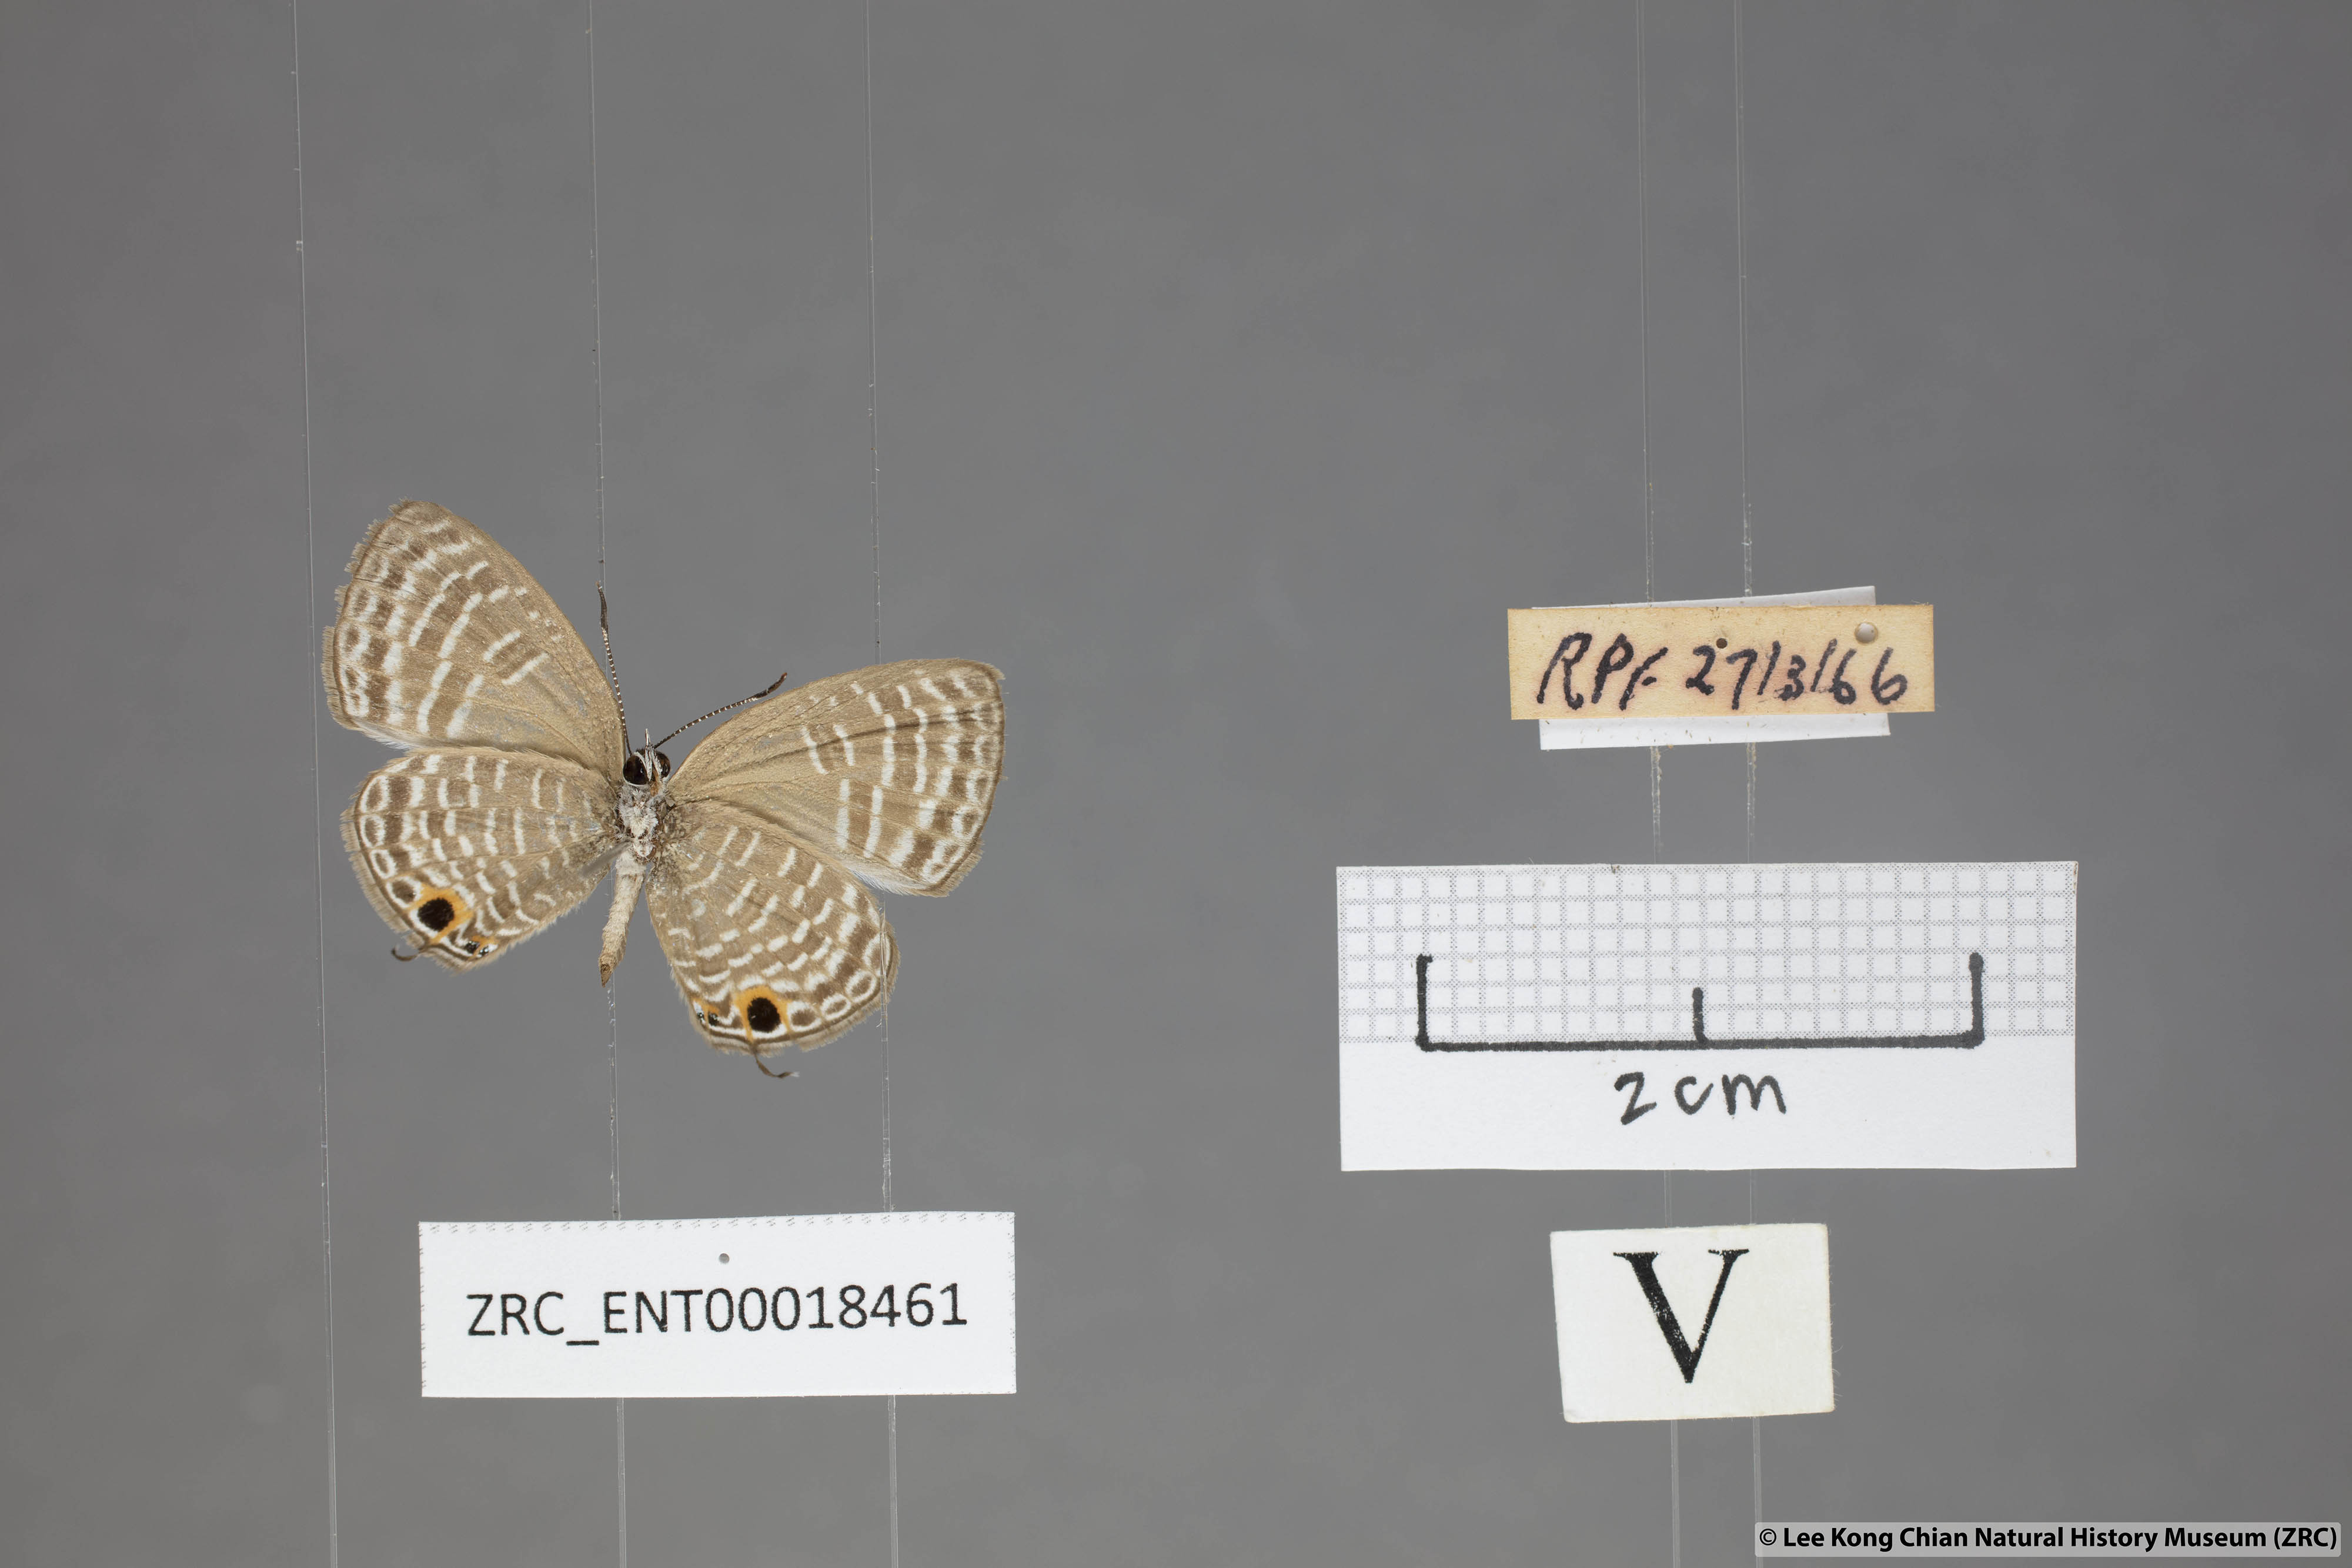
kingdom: Animalia
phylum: Arthropoda
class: Insecta
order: Lepidoptera
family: Lycaenidae
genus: Nacaduba
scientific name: Nacaduba sanaya
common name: Jewel fourline blue
